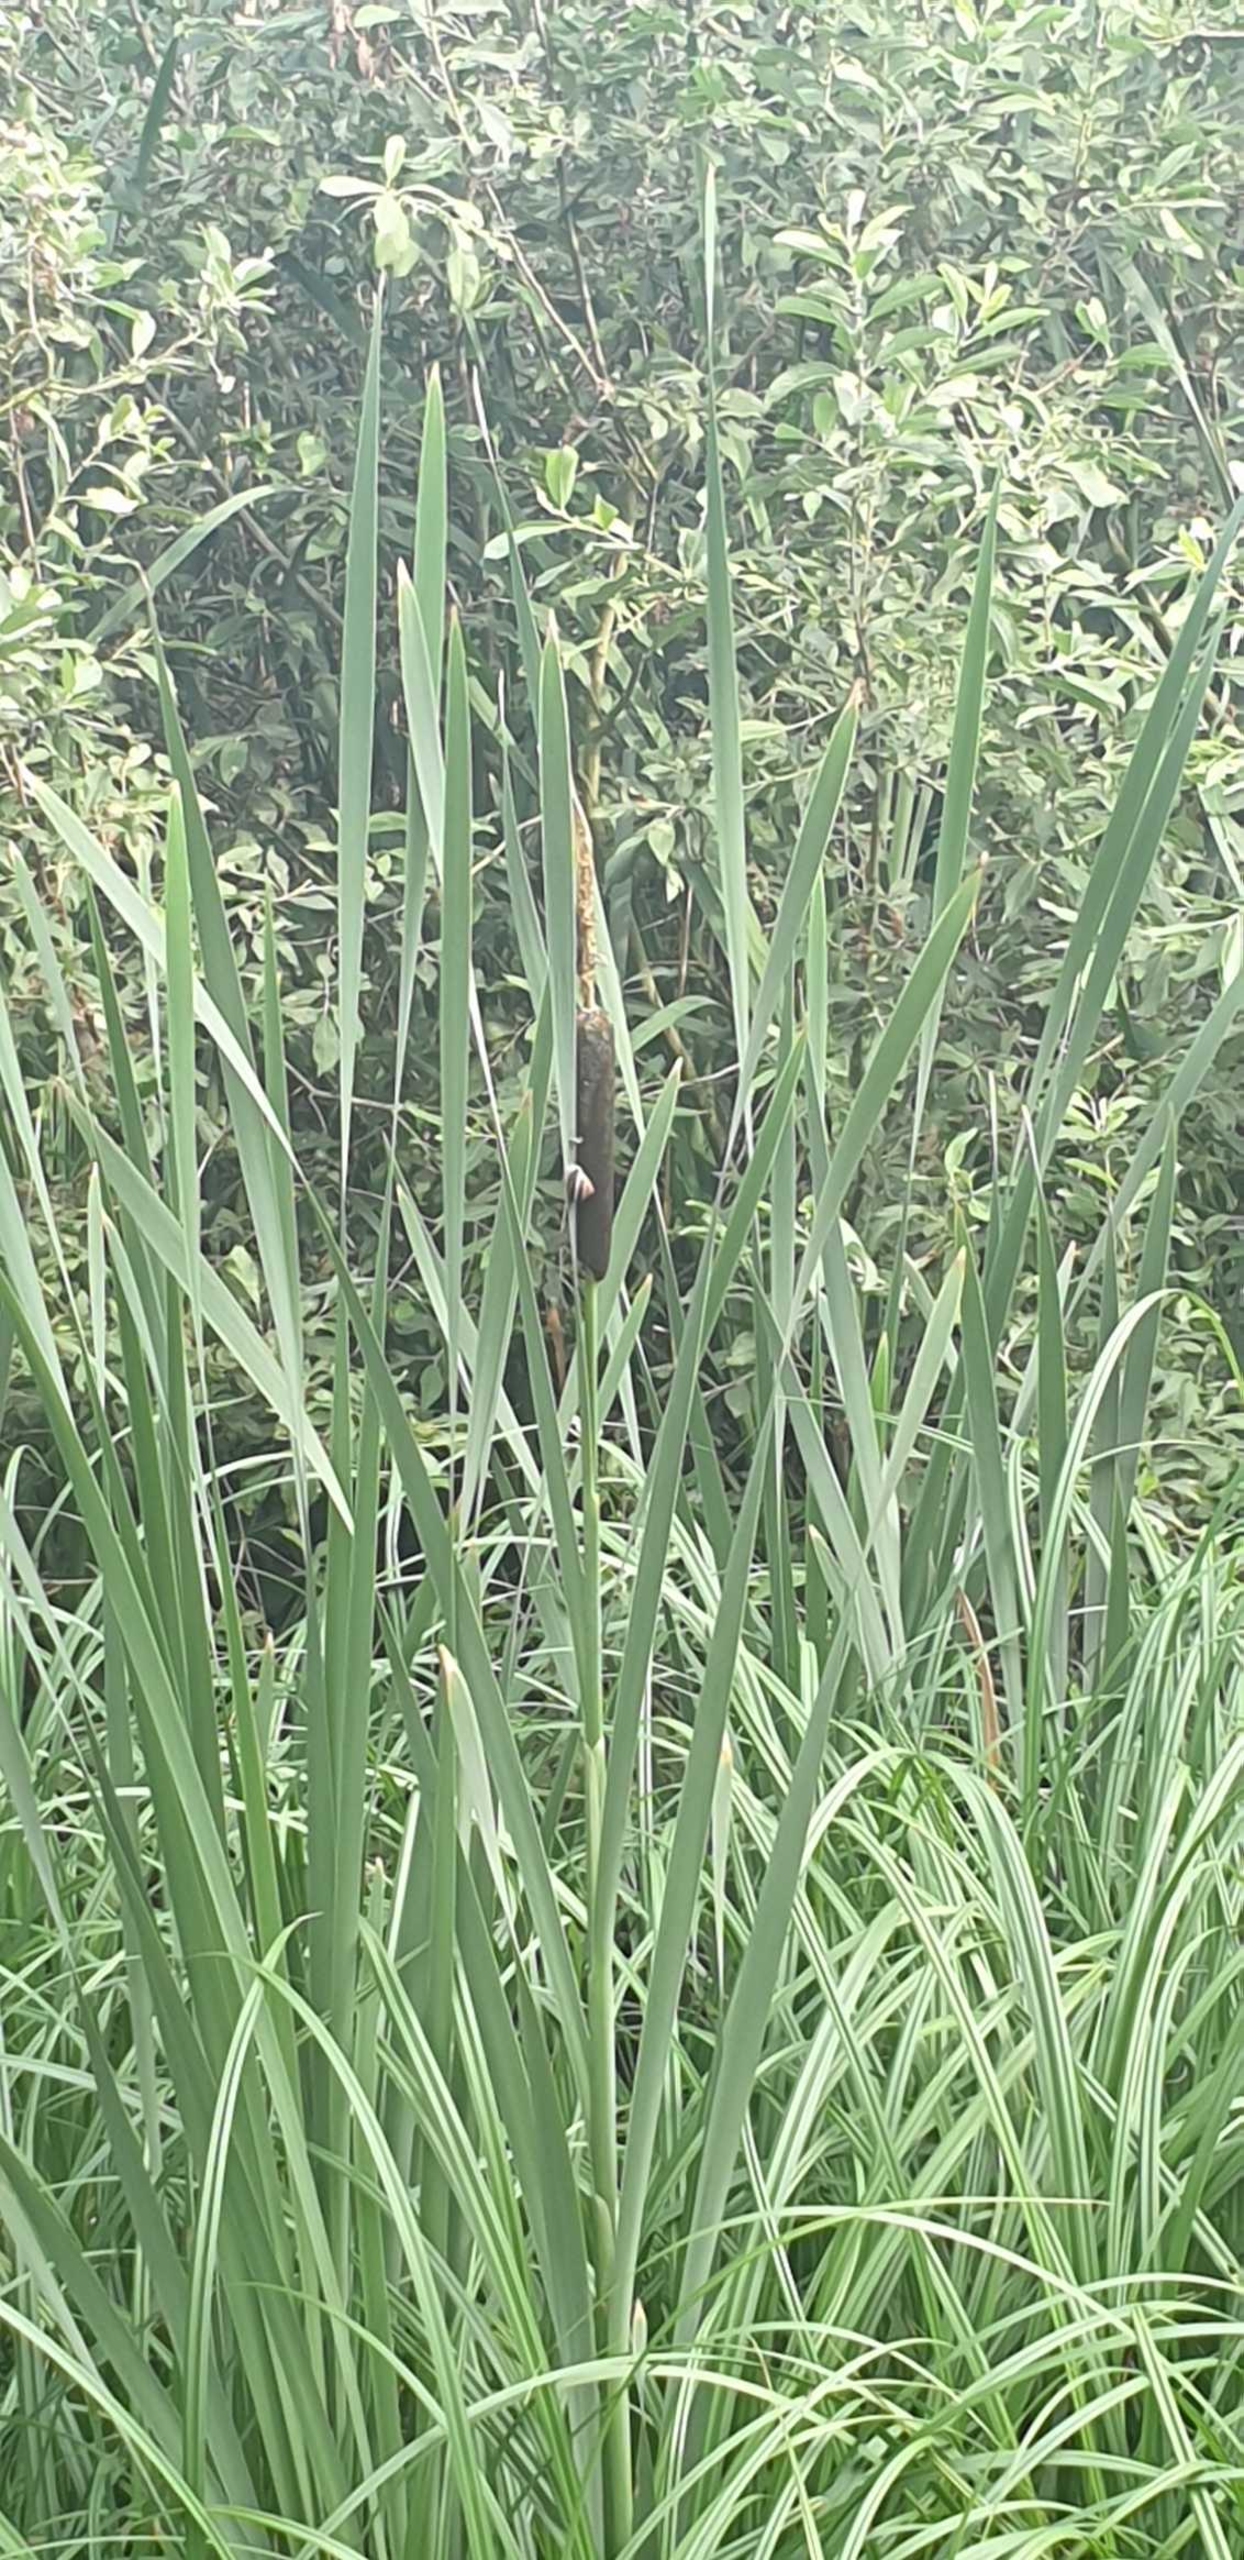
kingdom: Plantae
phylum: Tracheophyta
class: Liliopsida
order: Poales
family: Typhaceae
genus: Typha
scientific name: Typha latifolia
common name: Bredbladet dunhammer
